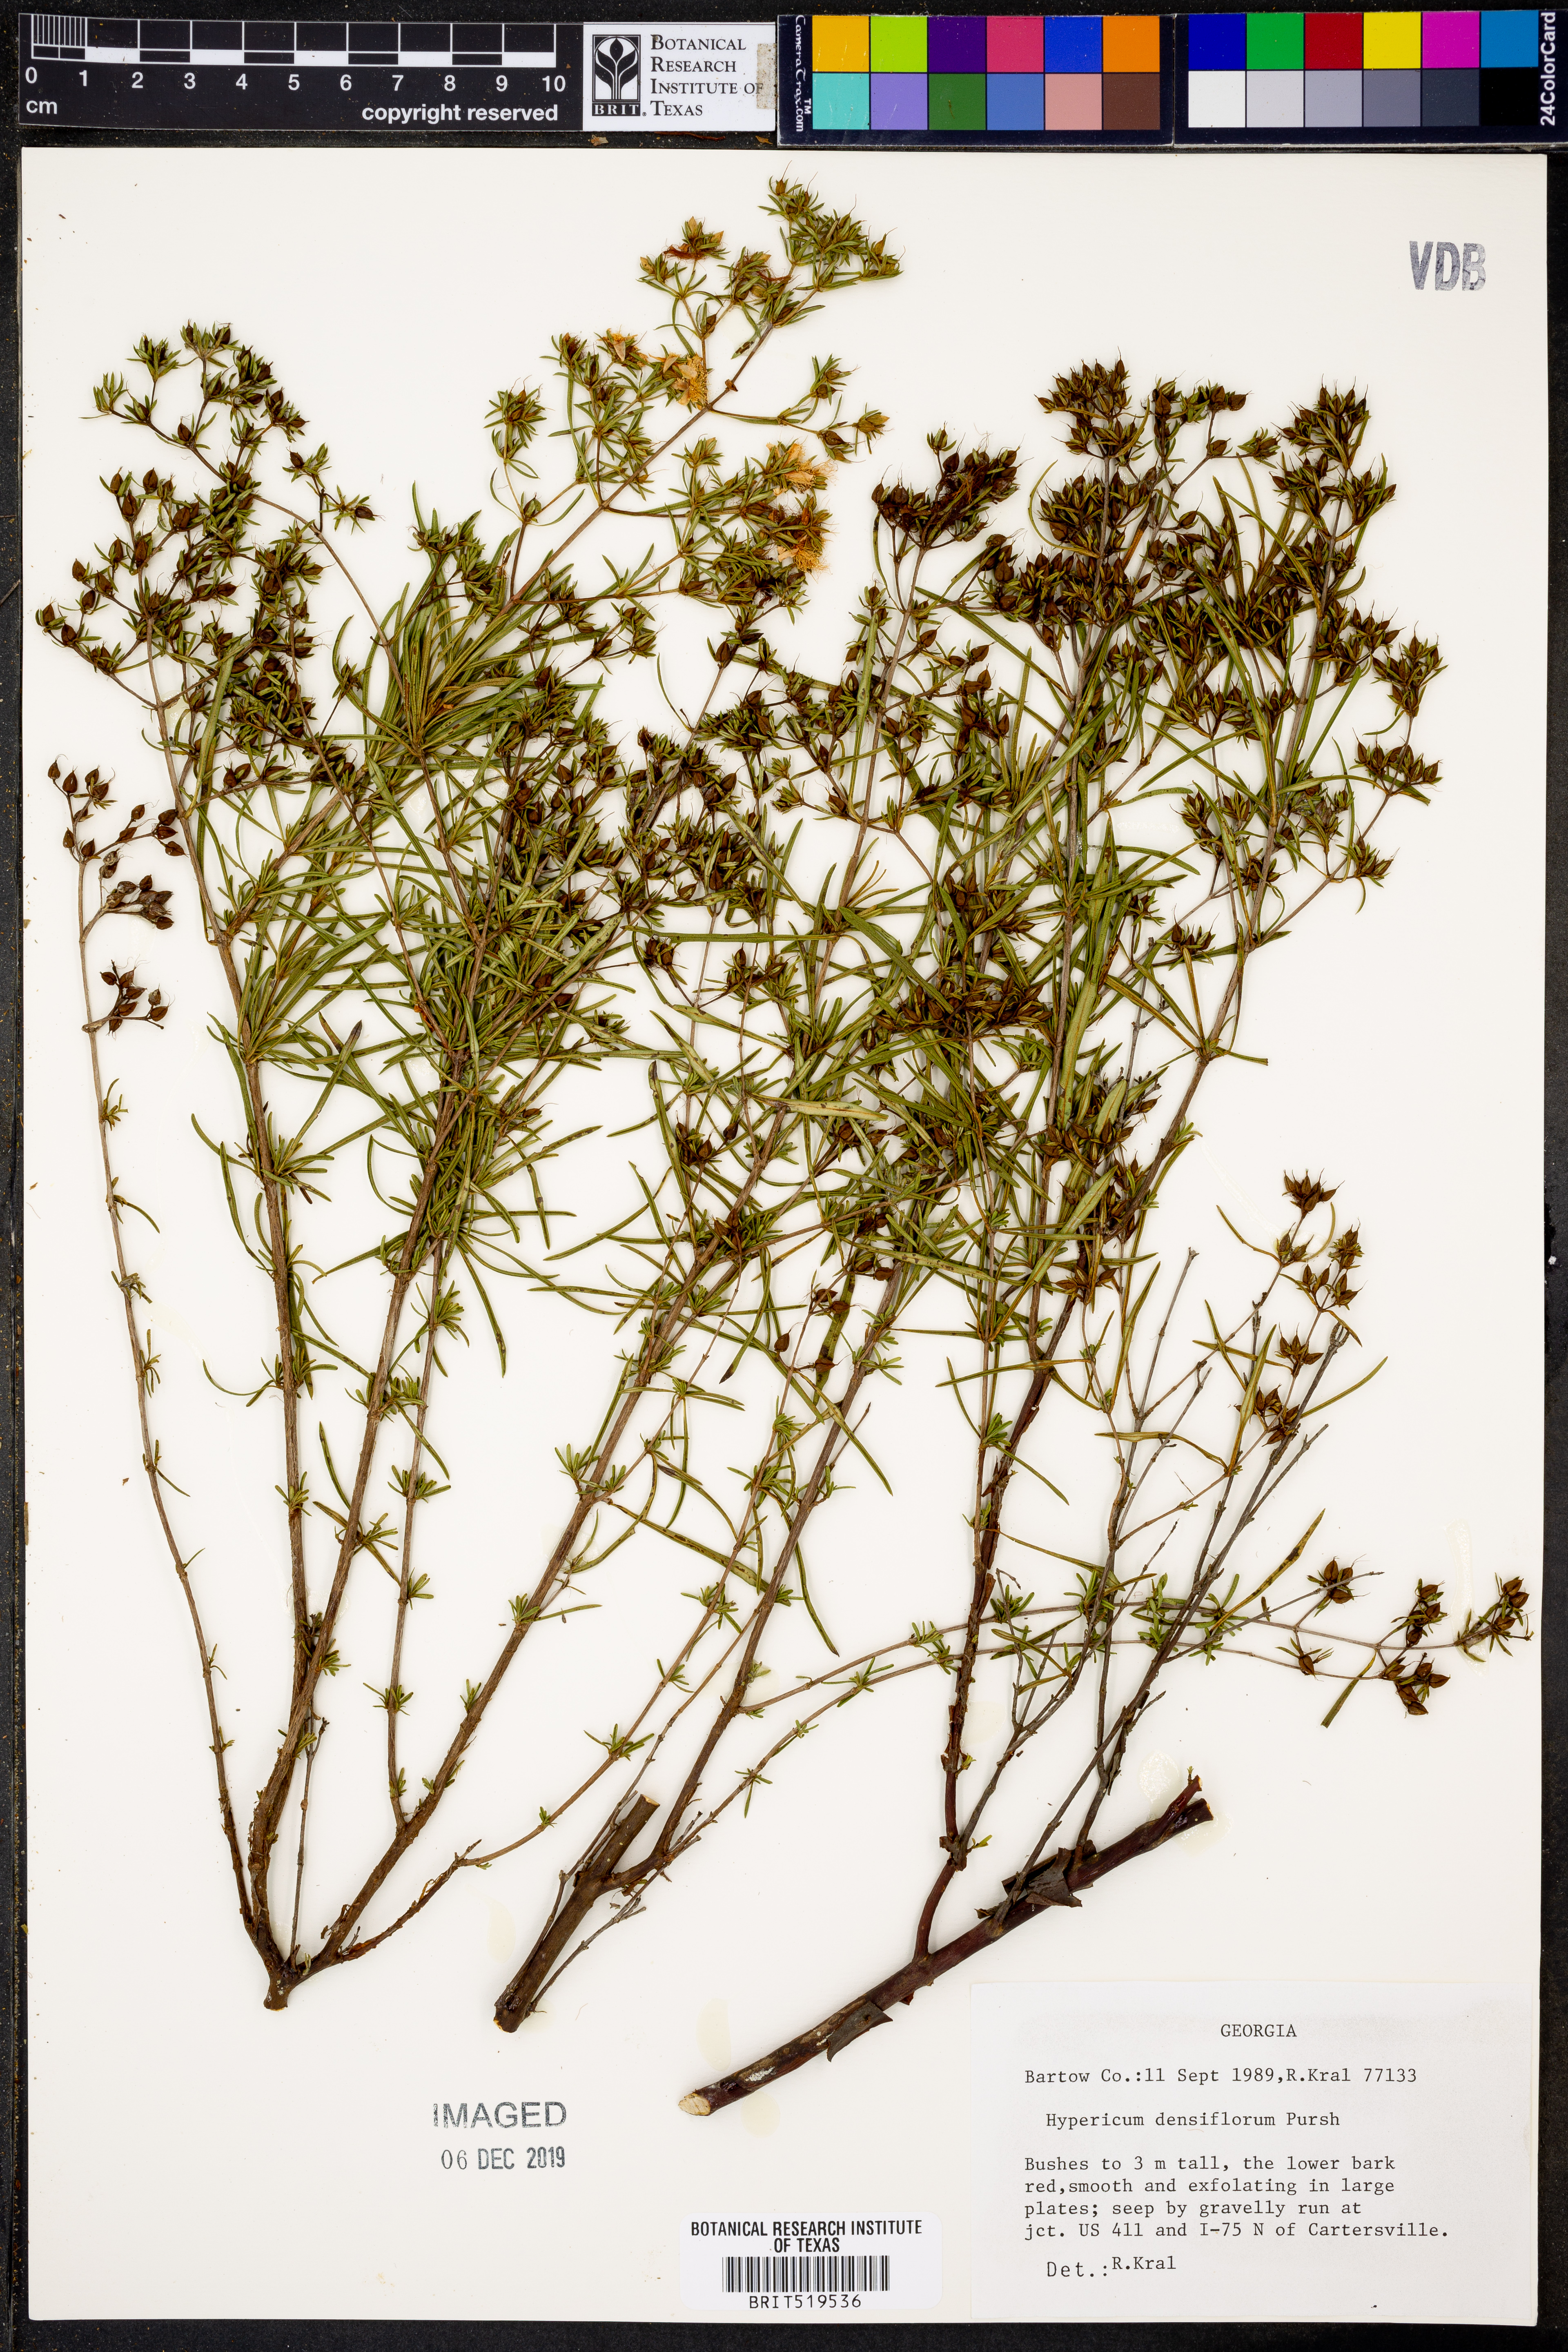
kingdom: Plantae
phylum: Tracheophyta
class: Magnoliopsida
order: Malpighiales
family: Hypericaceae
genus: Hypericum
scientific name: Hypericum densiflorum
